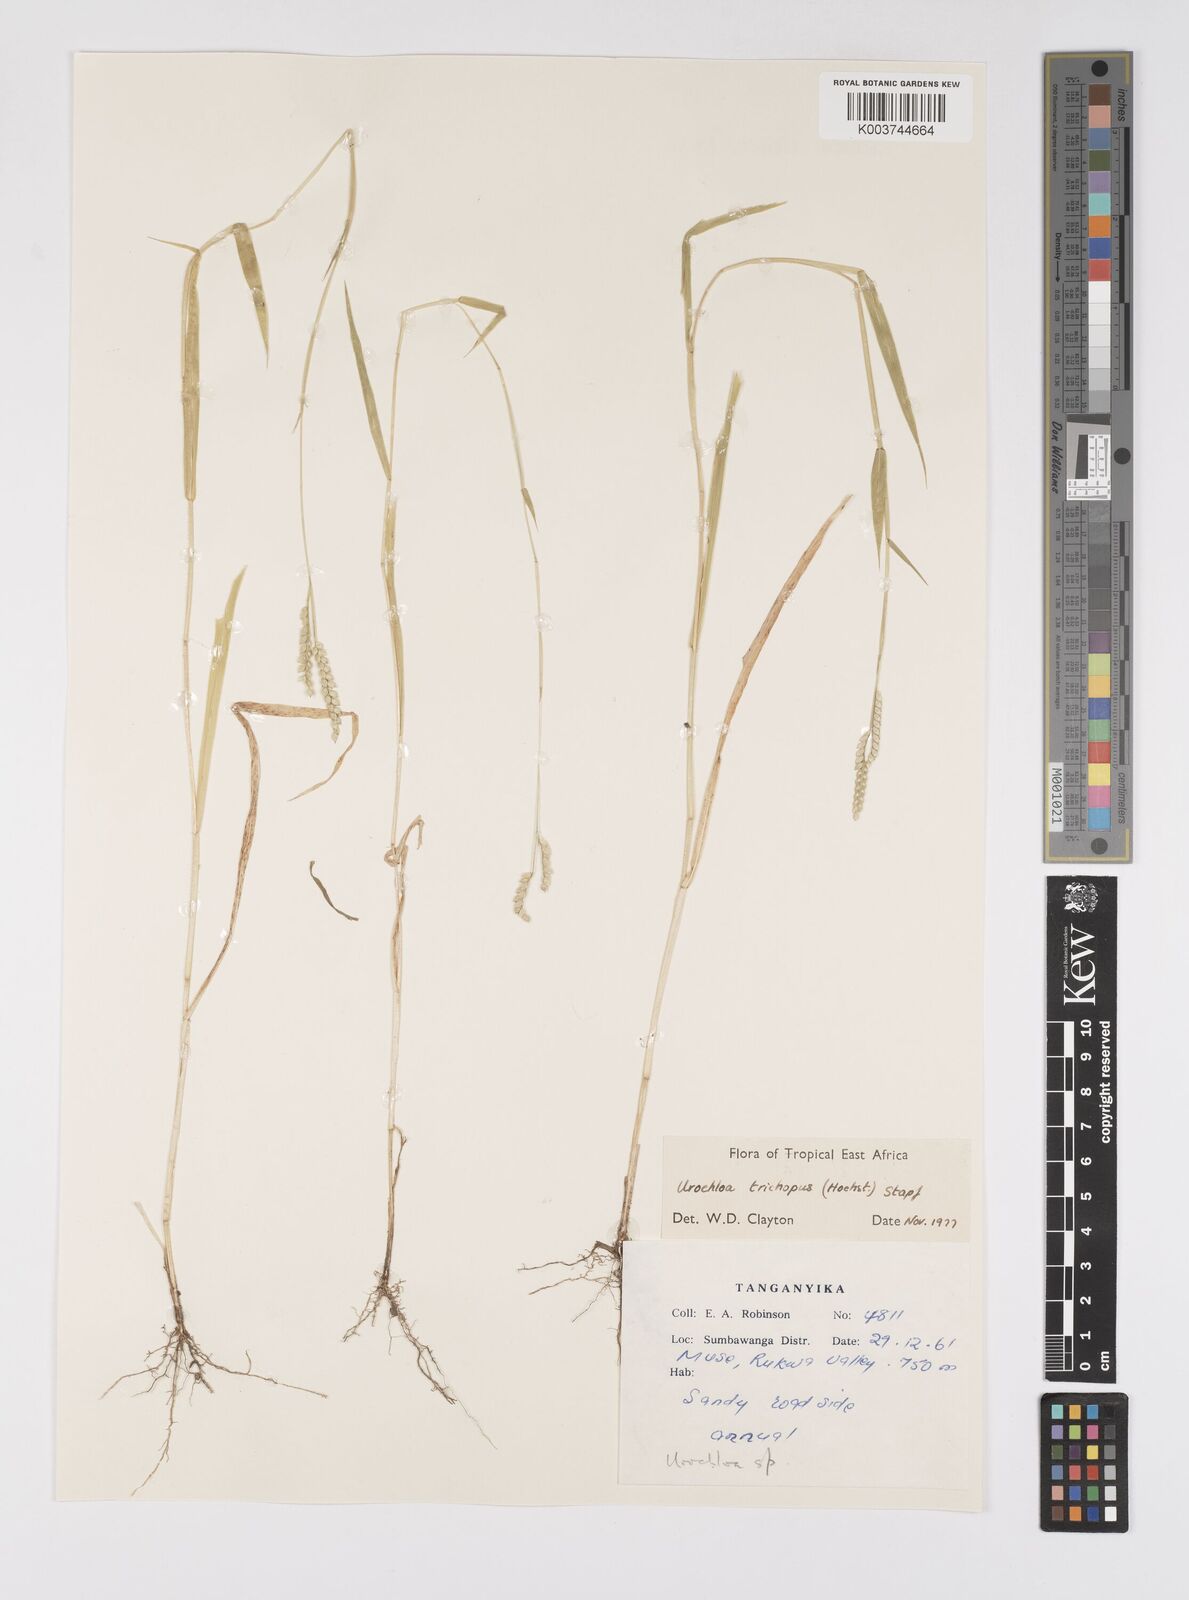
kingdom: Plantae
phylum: Tracheophyta
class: Liliopsida
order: Poales
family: Poaceae
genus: Urochloa
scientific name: Urochloa trichopus
